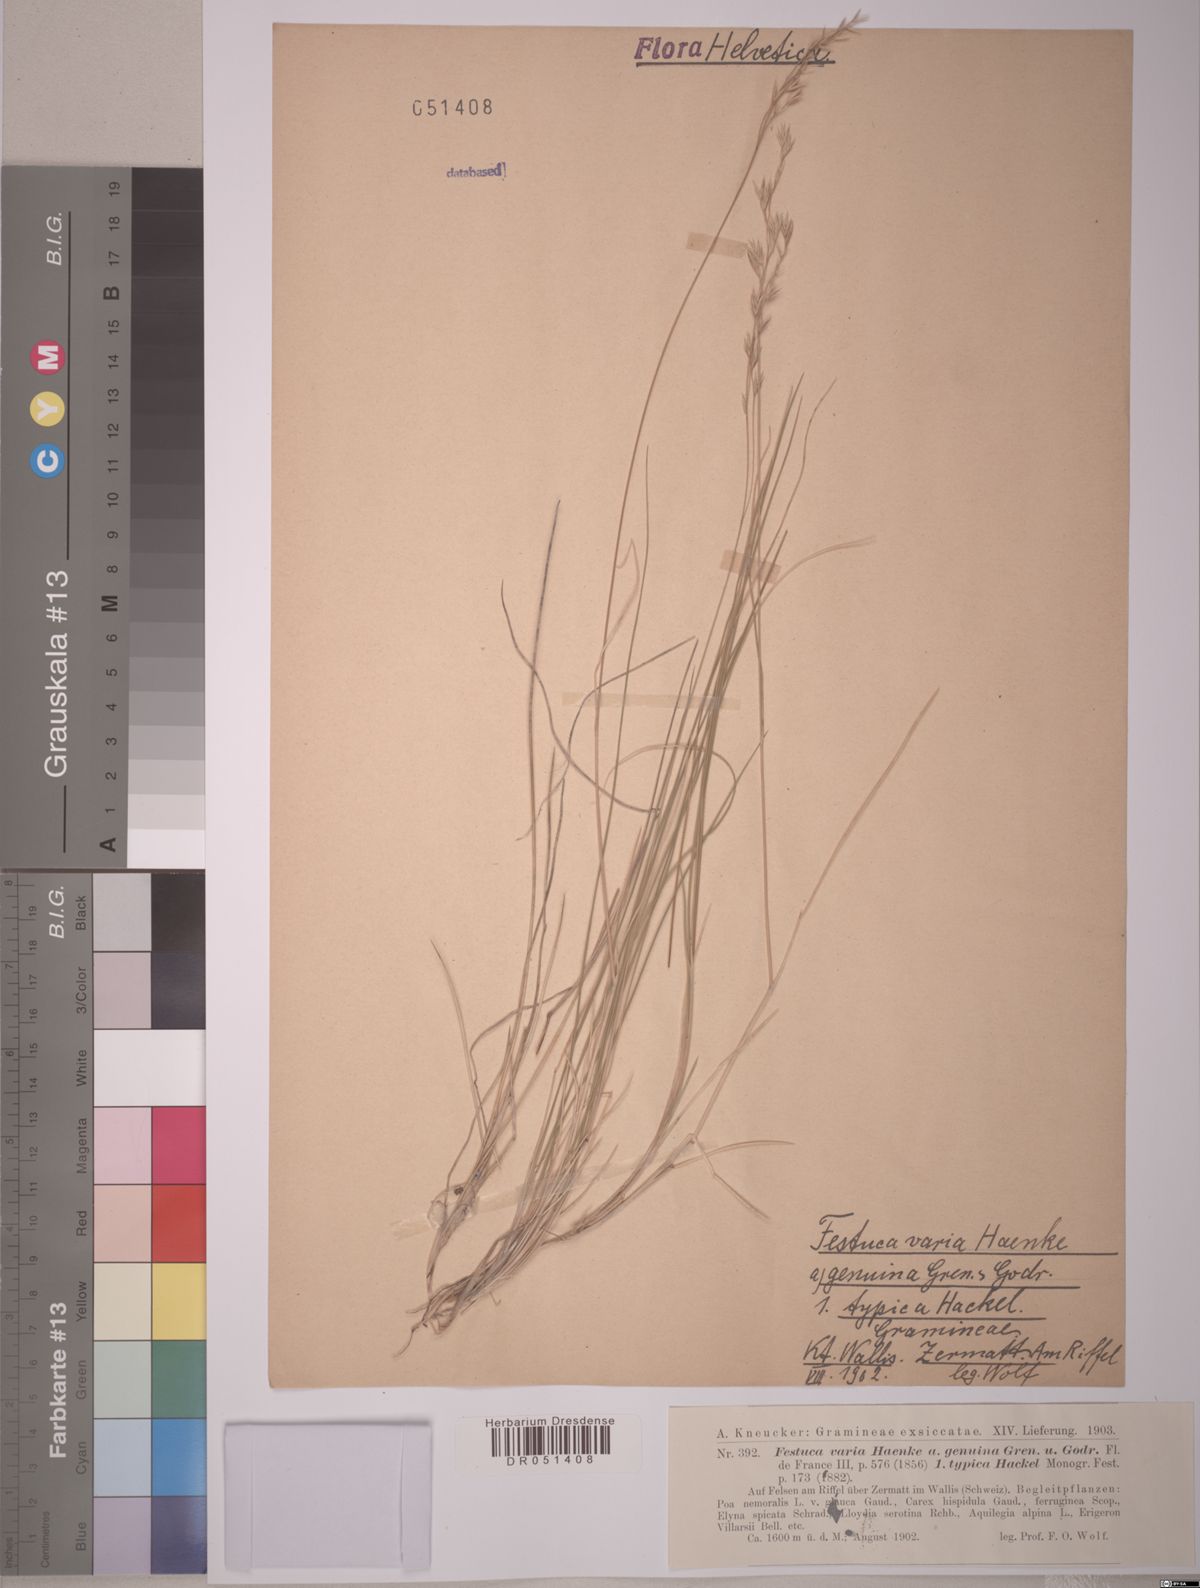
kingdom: Plantae
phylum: Tracheophyta
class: Liliopsida
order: Poales
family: Poaceae
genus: Festuca
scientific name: Festuca varia
